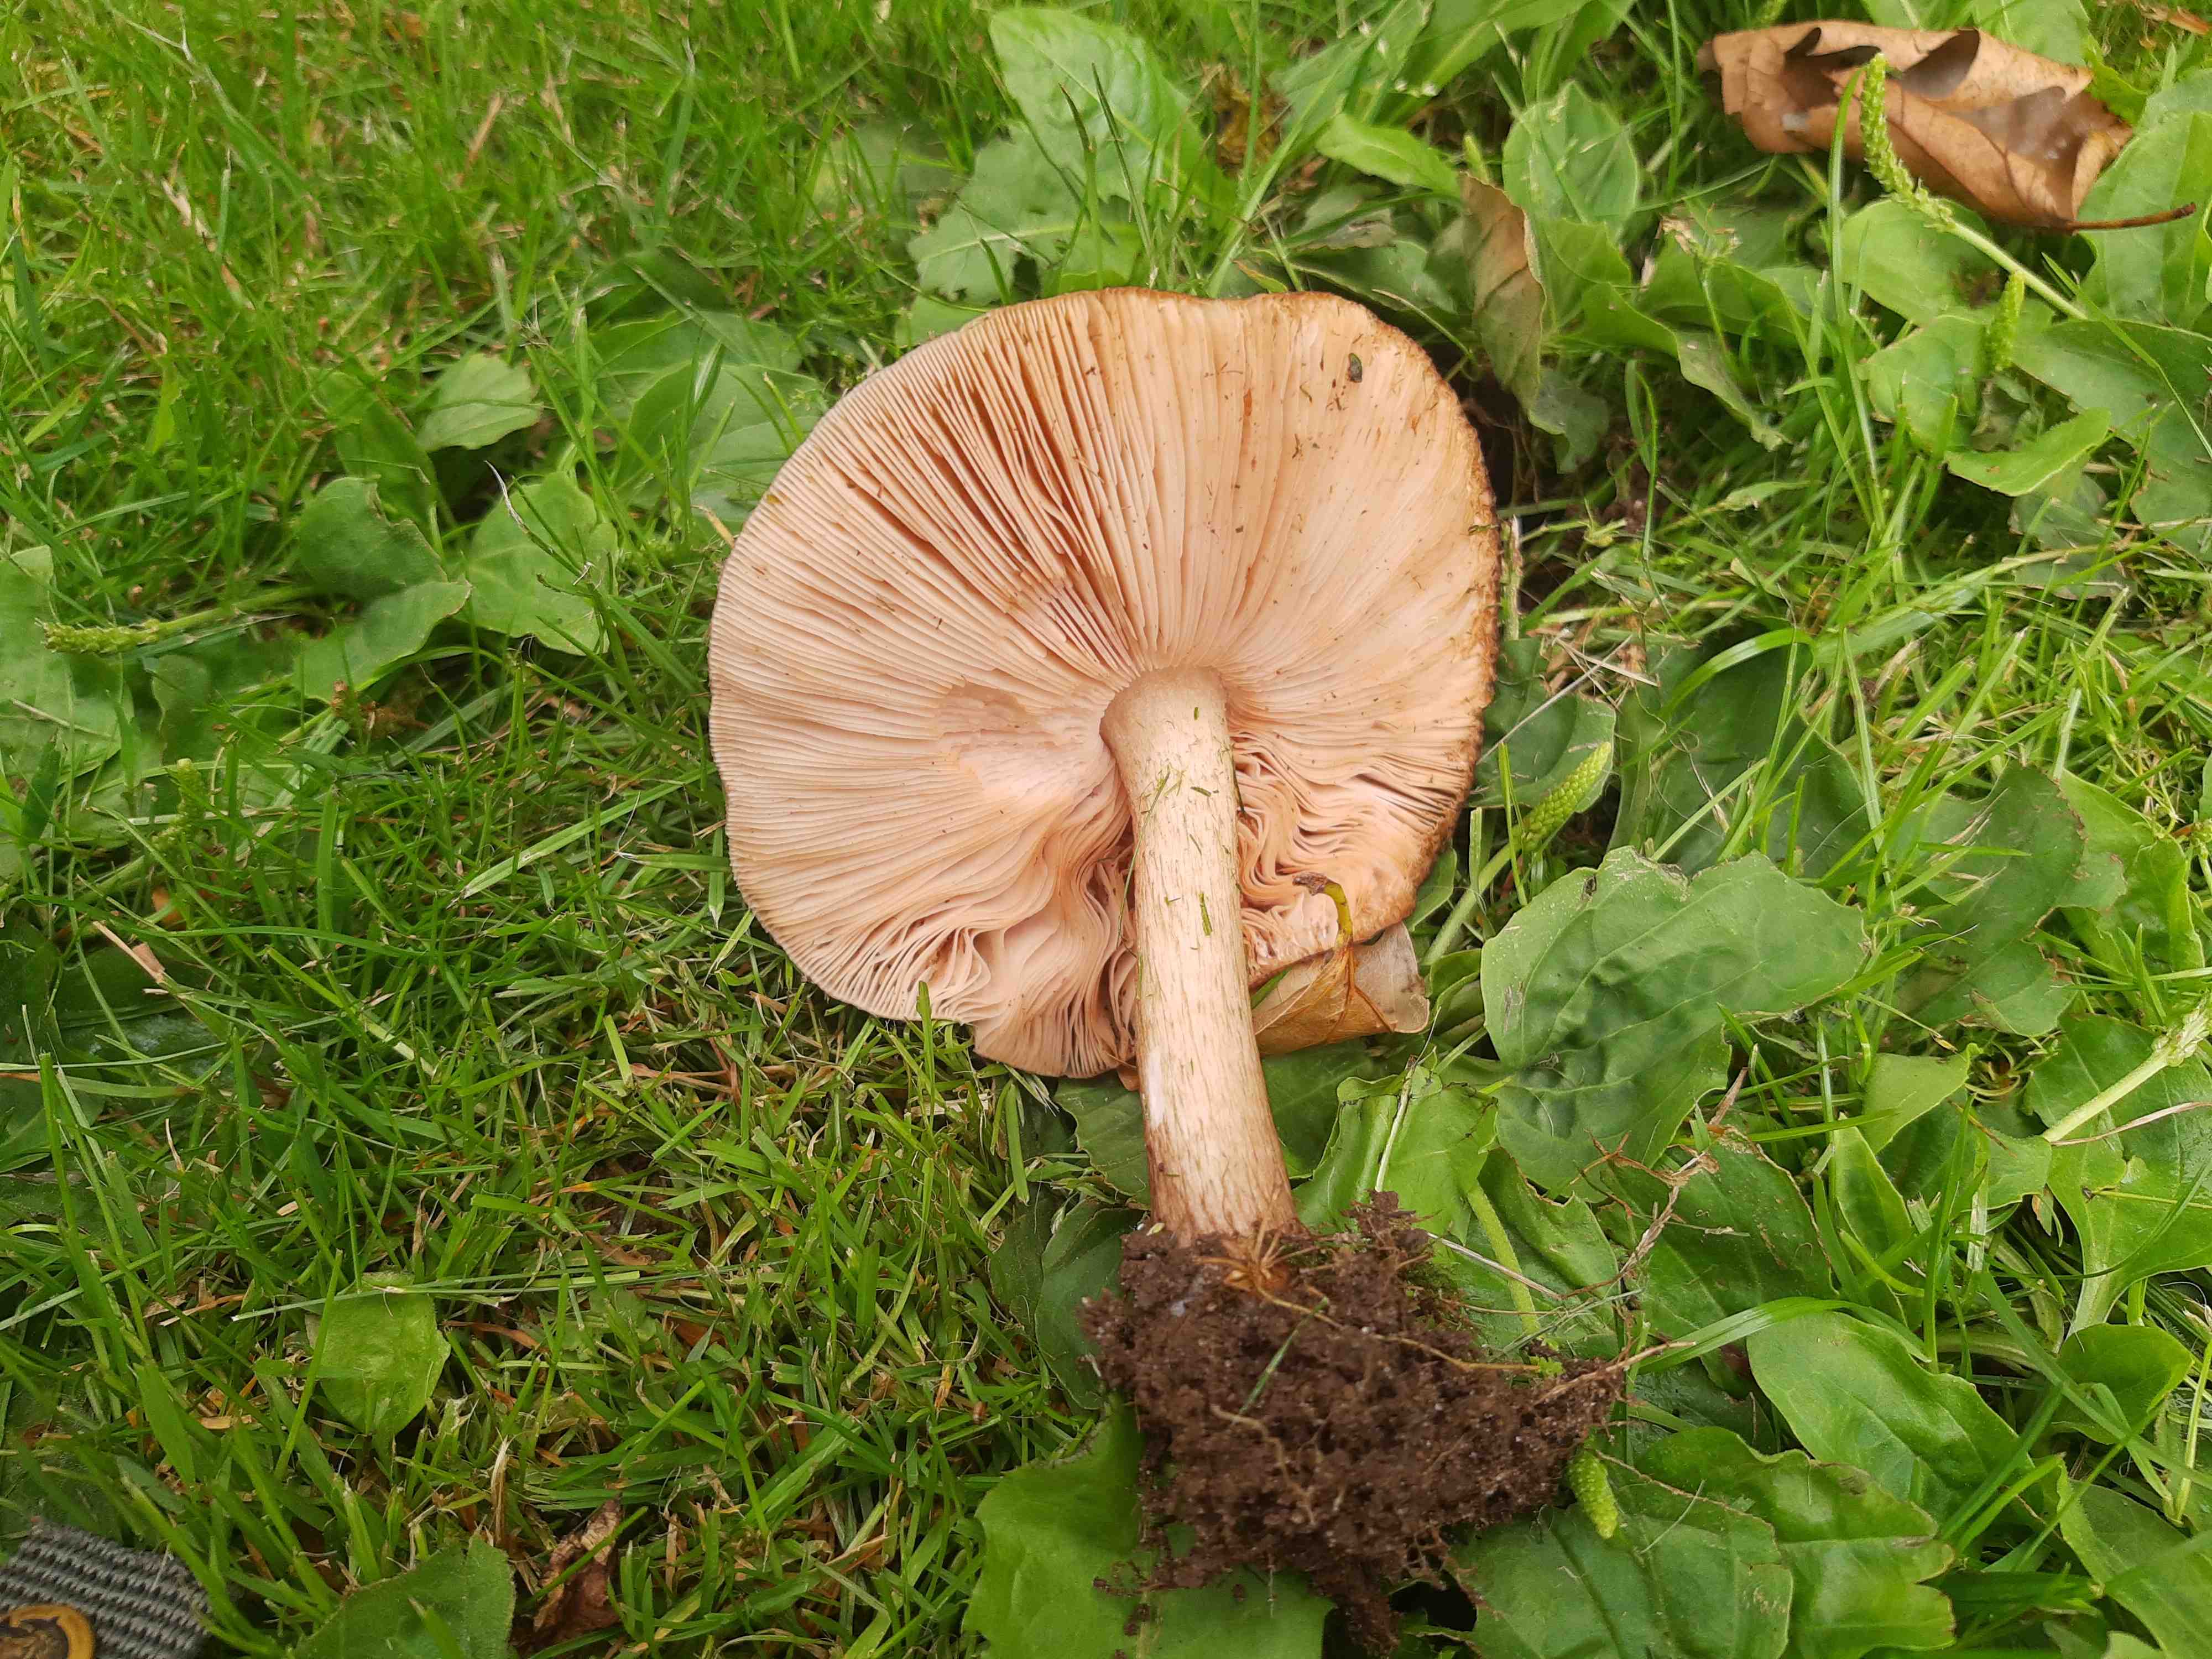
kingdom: Fungi
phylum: Basidiomycota
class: Agaricomycetes
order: Agaricales
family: Pluteaceae
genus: Pluteus
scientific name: Pluteus cervinus
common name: sodfarvet skærmhat
